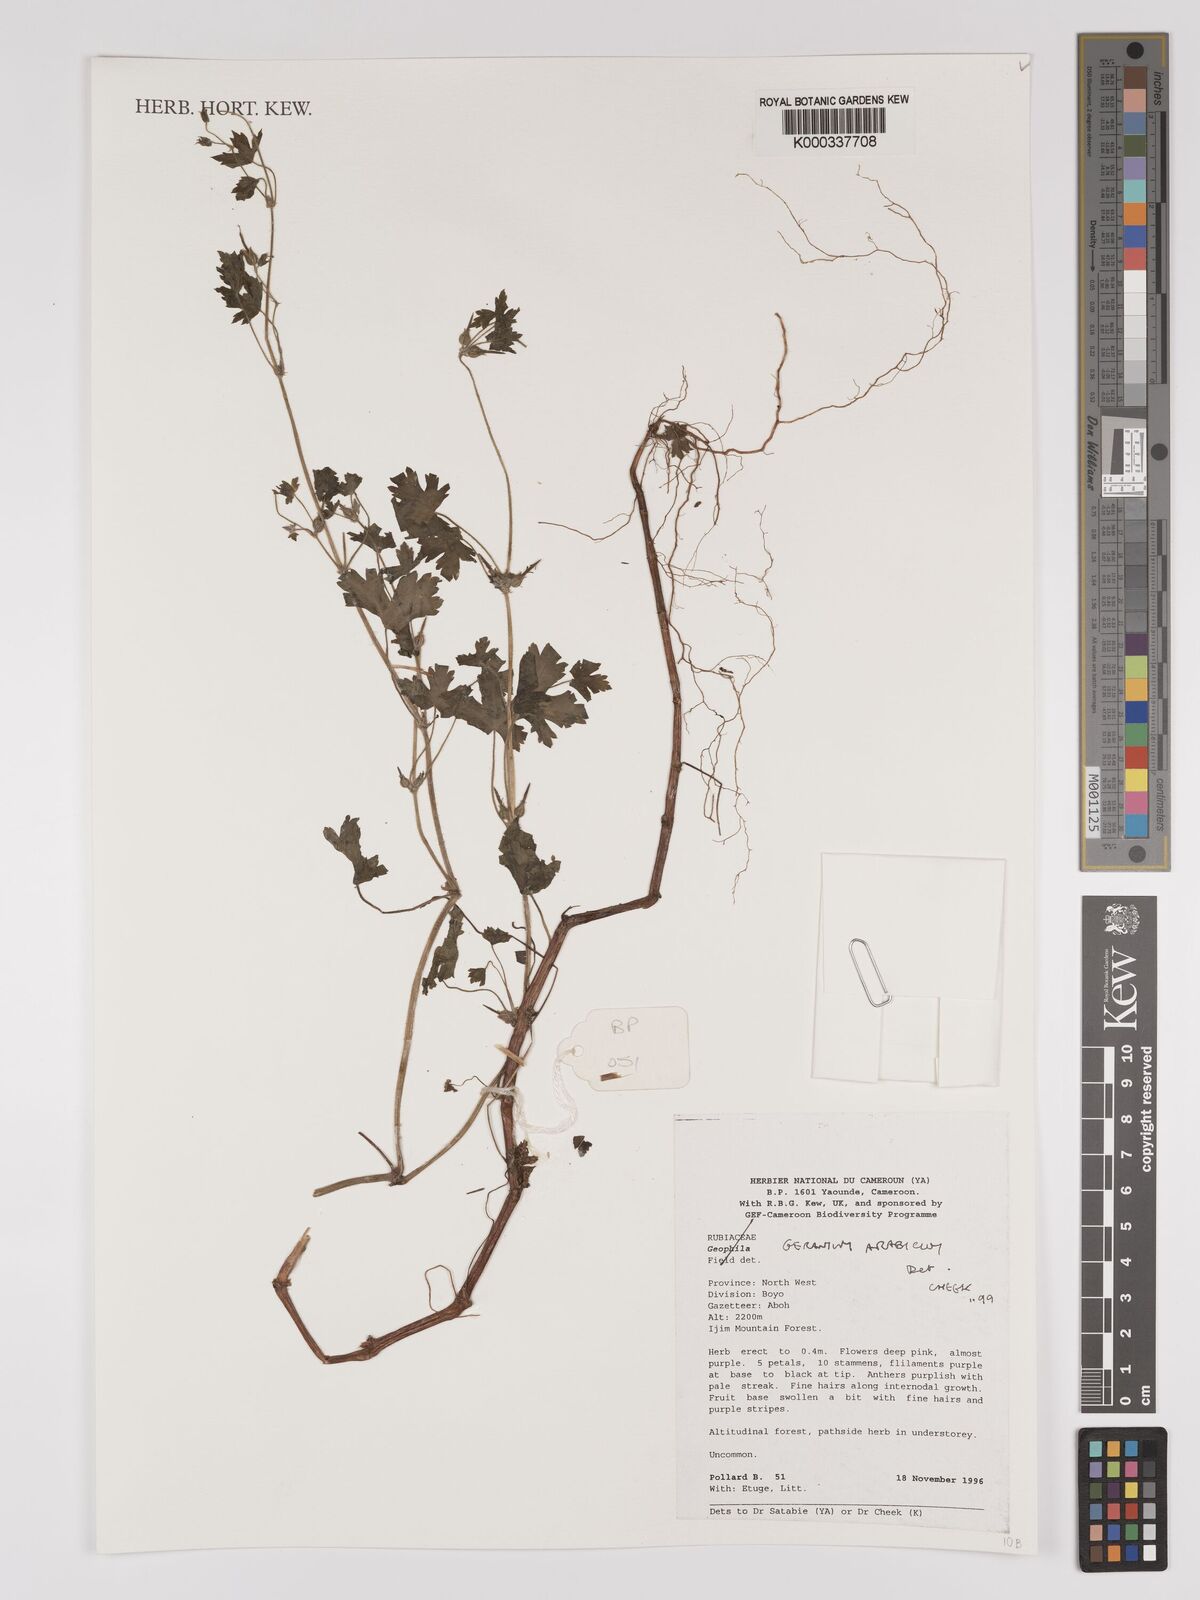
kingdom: Plantae
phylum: Tracheophyta
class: Magnoliopsida
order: Geraniales
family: Geraniaceae
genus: Geranium
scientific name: Geranium arabicum
